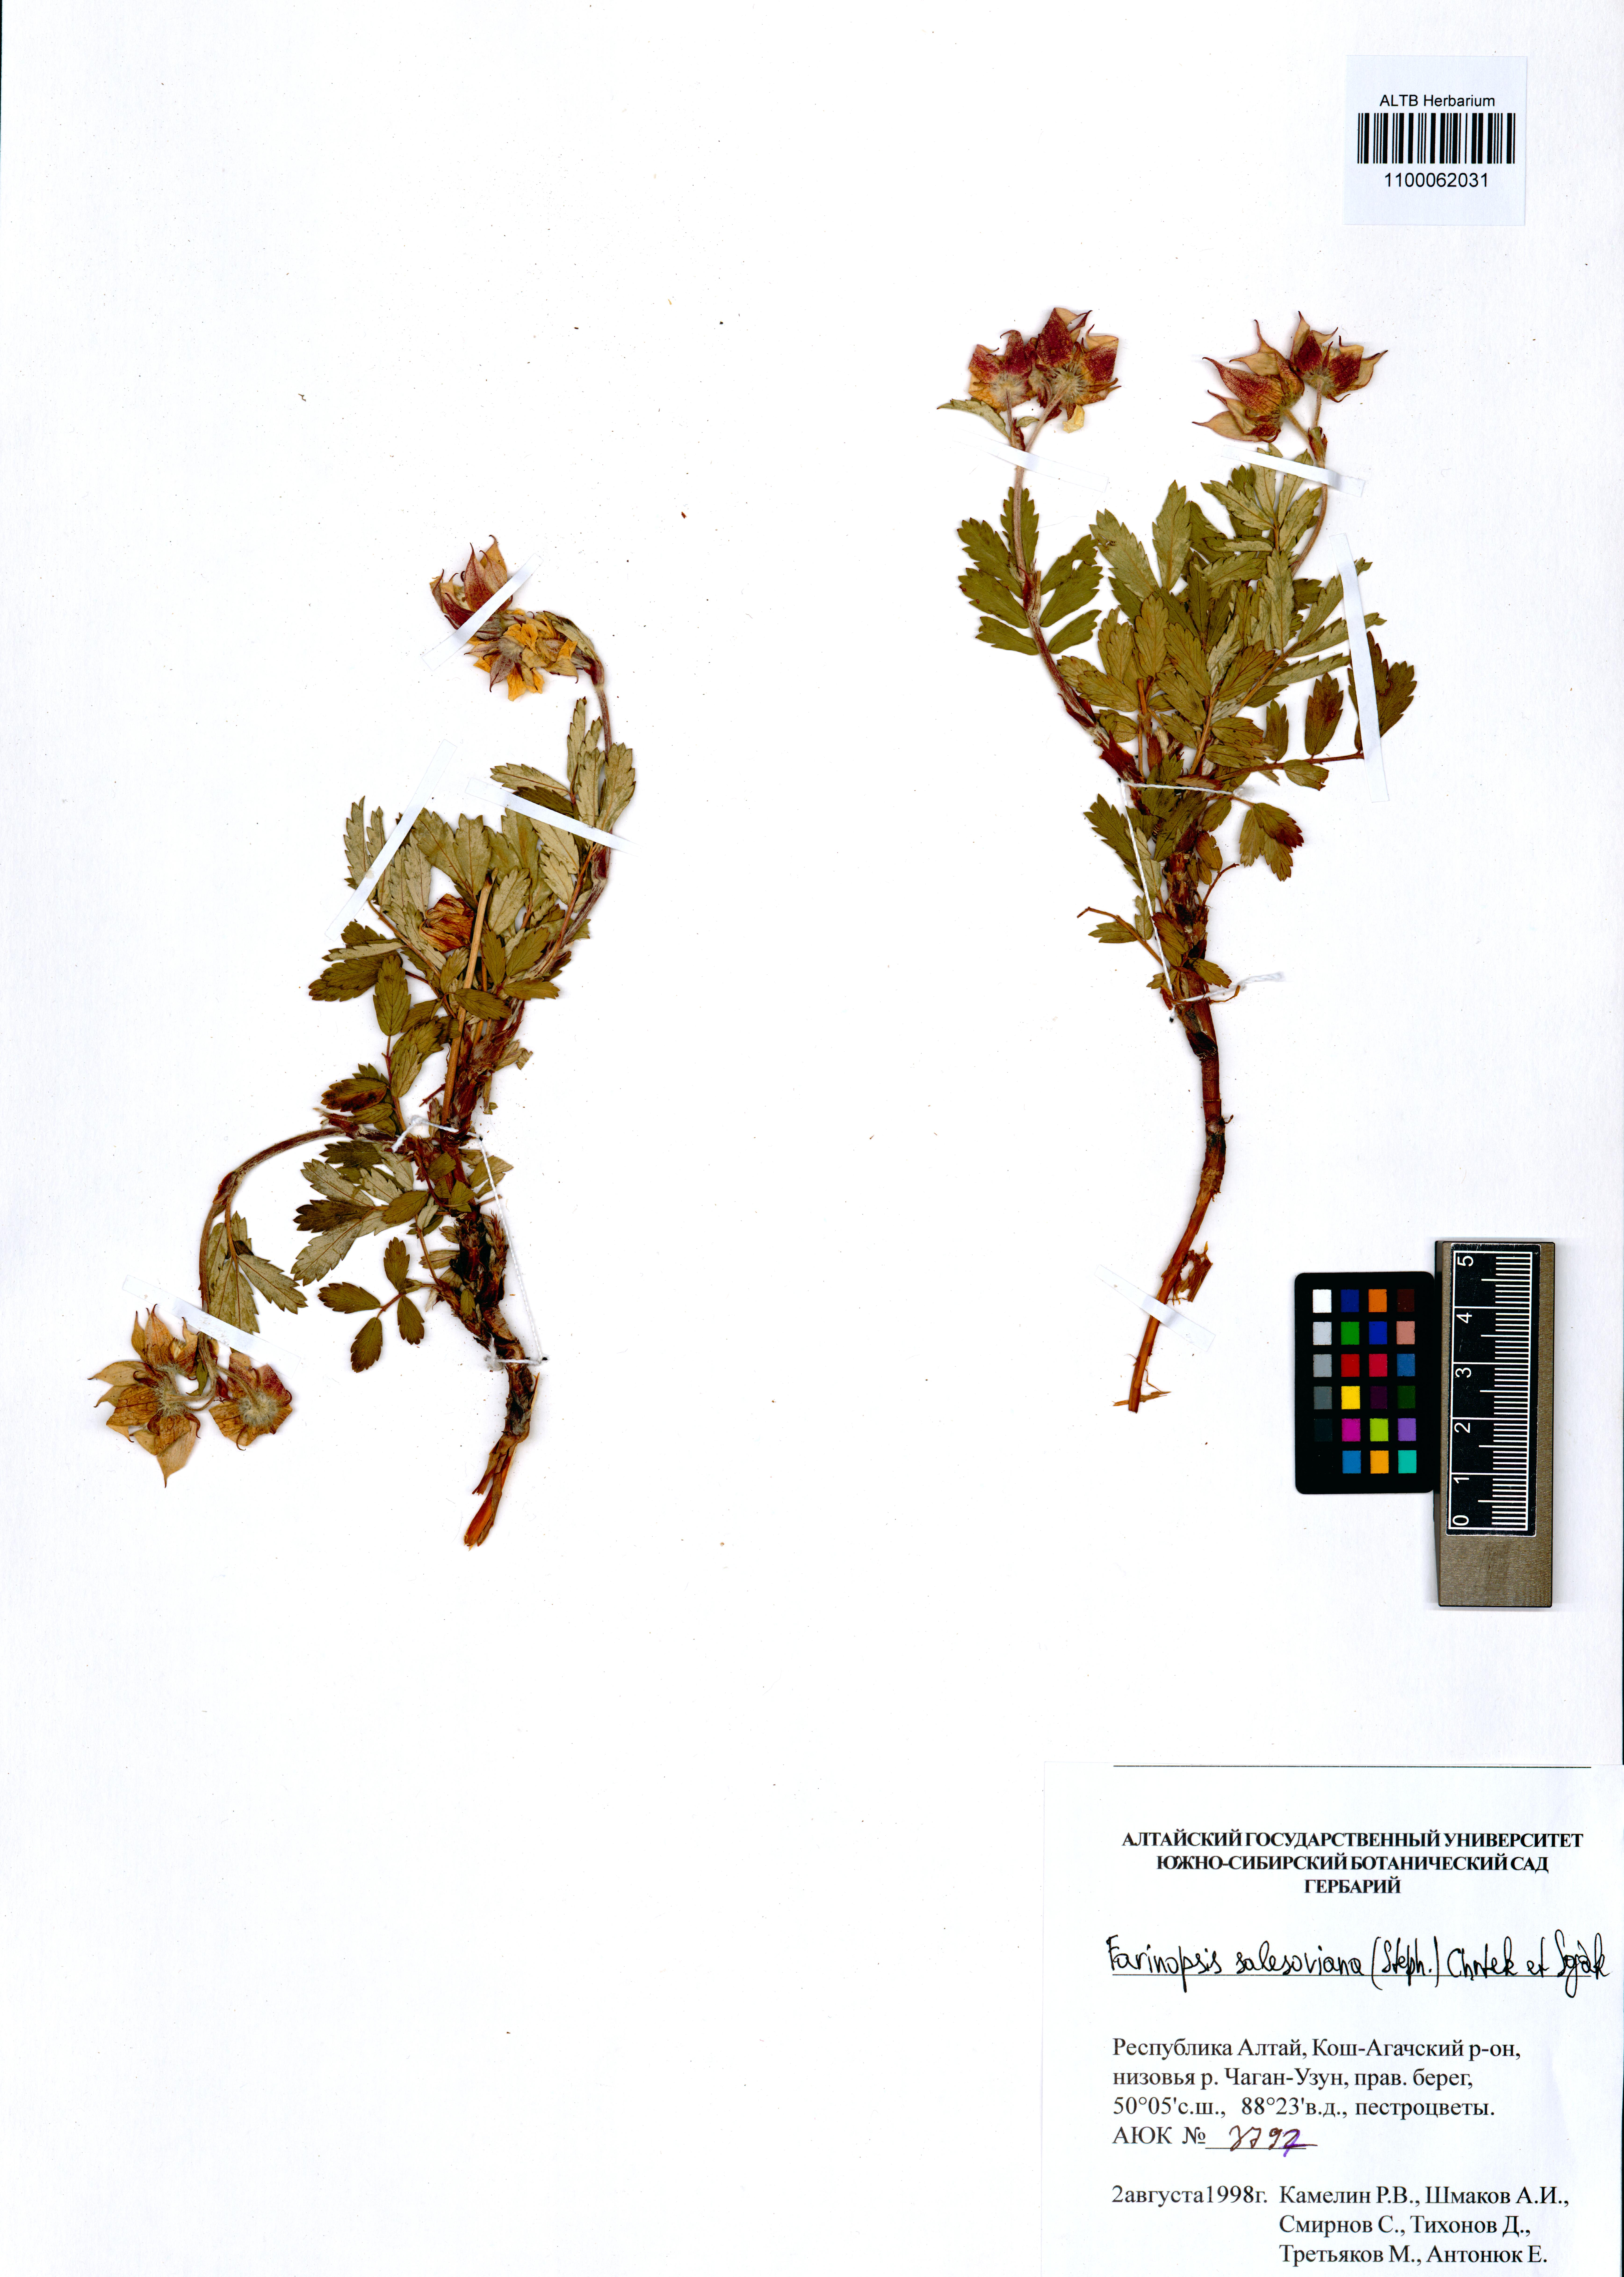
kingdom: Plantae
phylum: Tracheophyta
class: Magnoliopsida
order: Rosales
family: Rosaceae
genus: Farinopsis
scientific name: Farinopsis salesoviana
